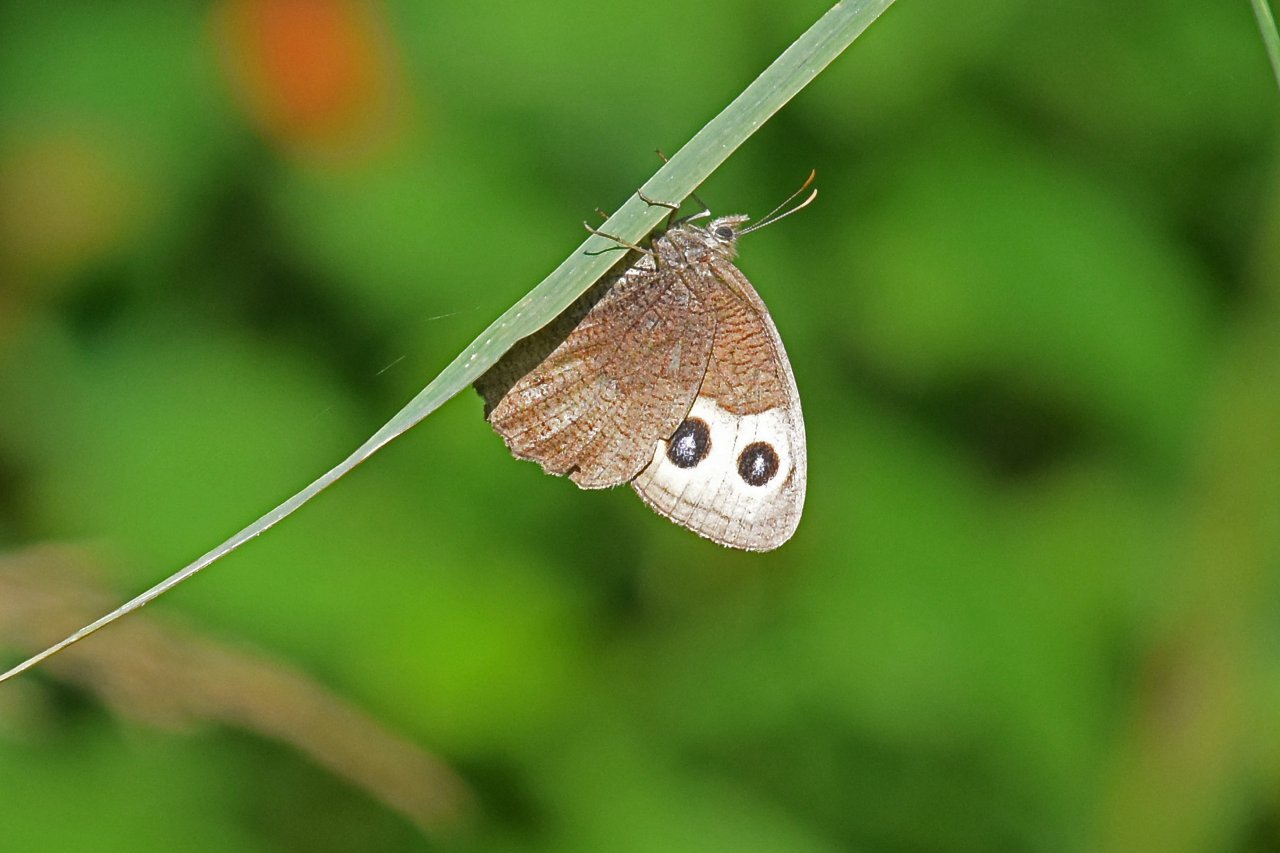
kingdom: Animalia
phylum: Arthropoda
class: Insecta
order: Lepidoptera
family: Nymphalidae
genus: Cercyonis
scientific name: Cercyonis pegala
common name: Common Wood-Nymph
